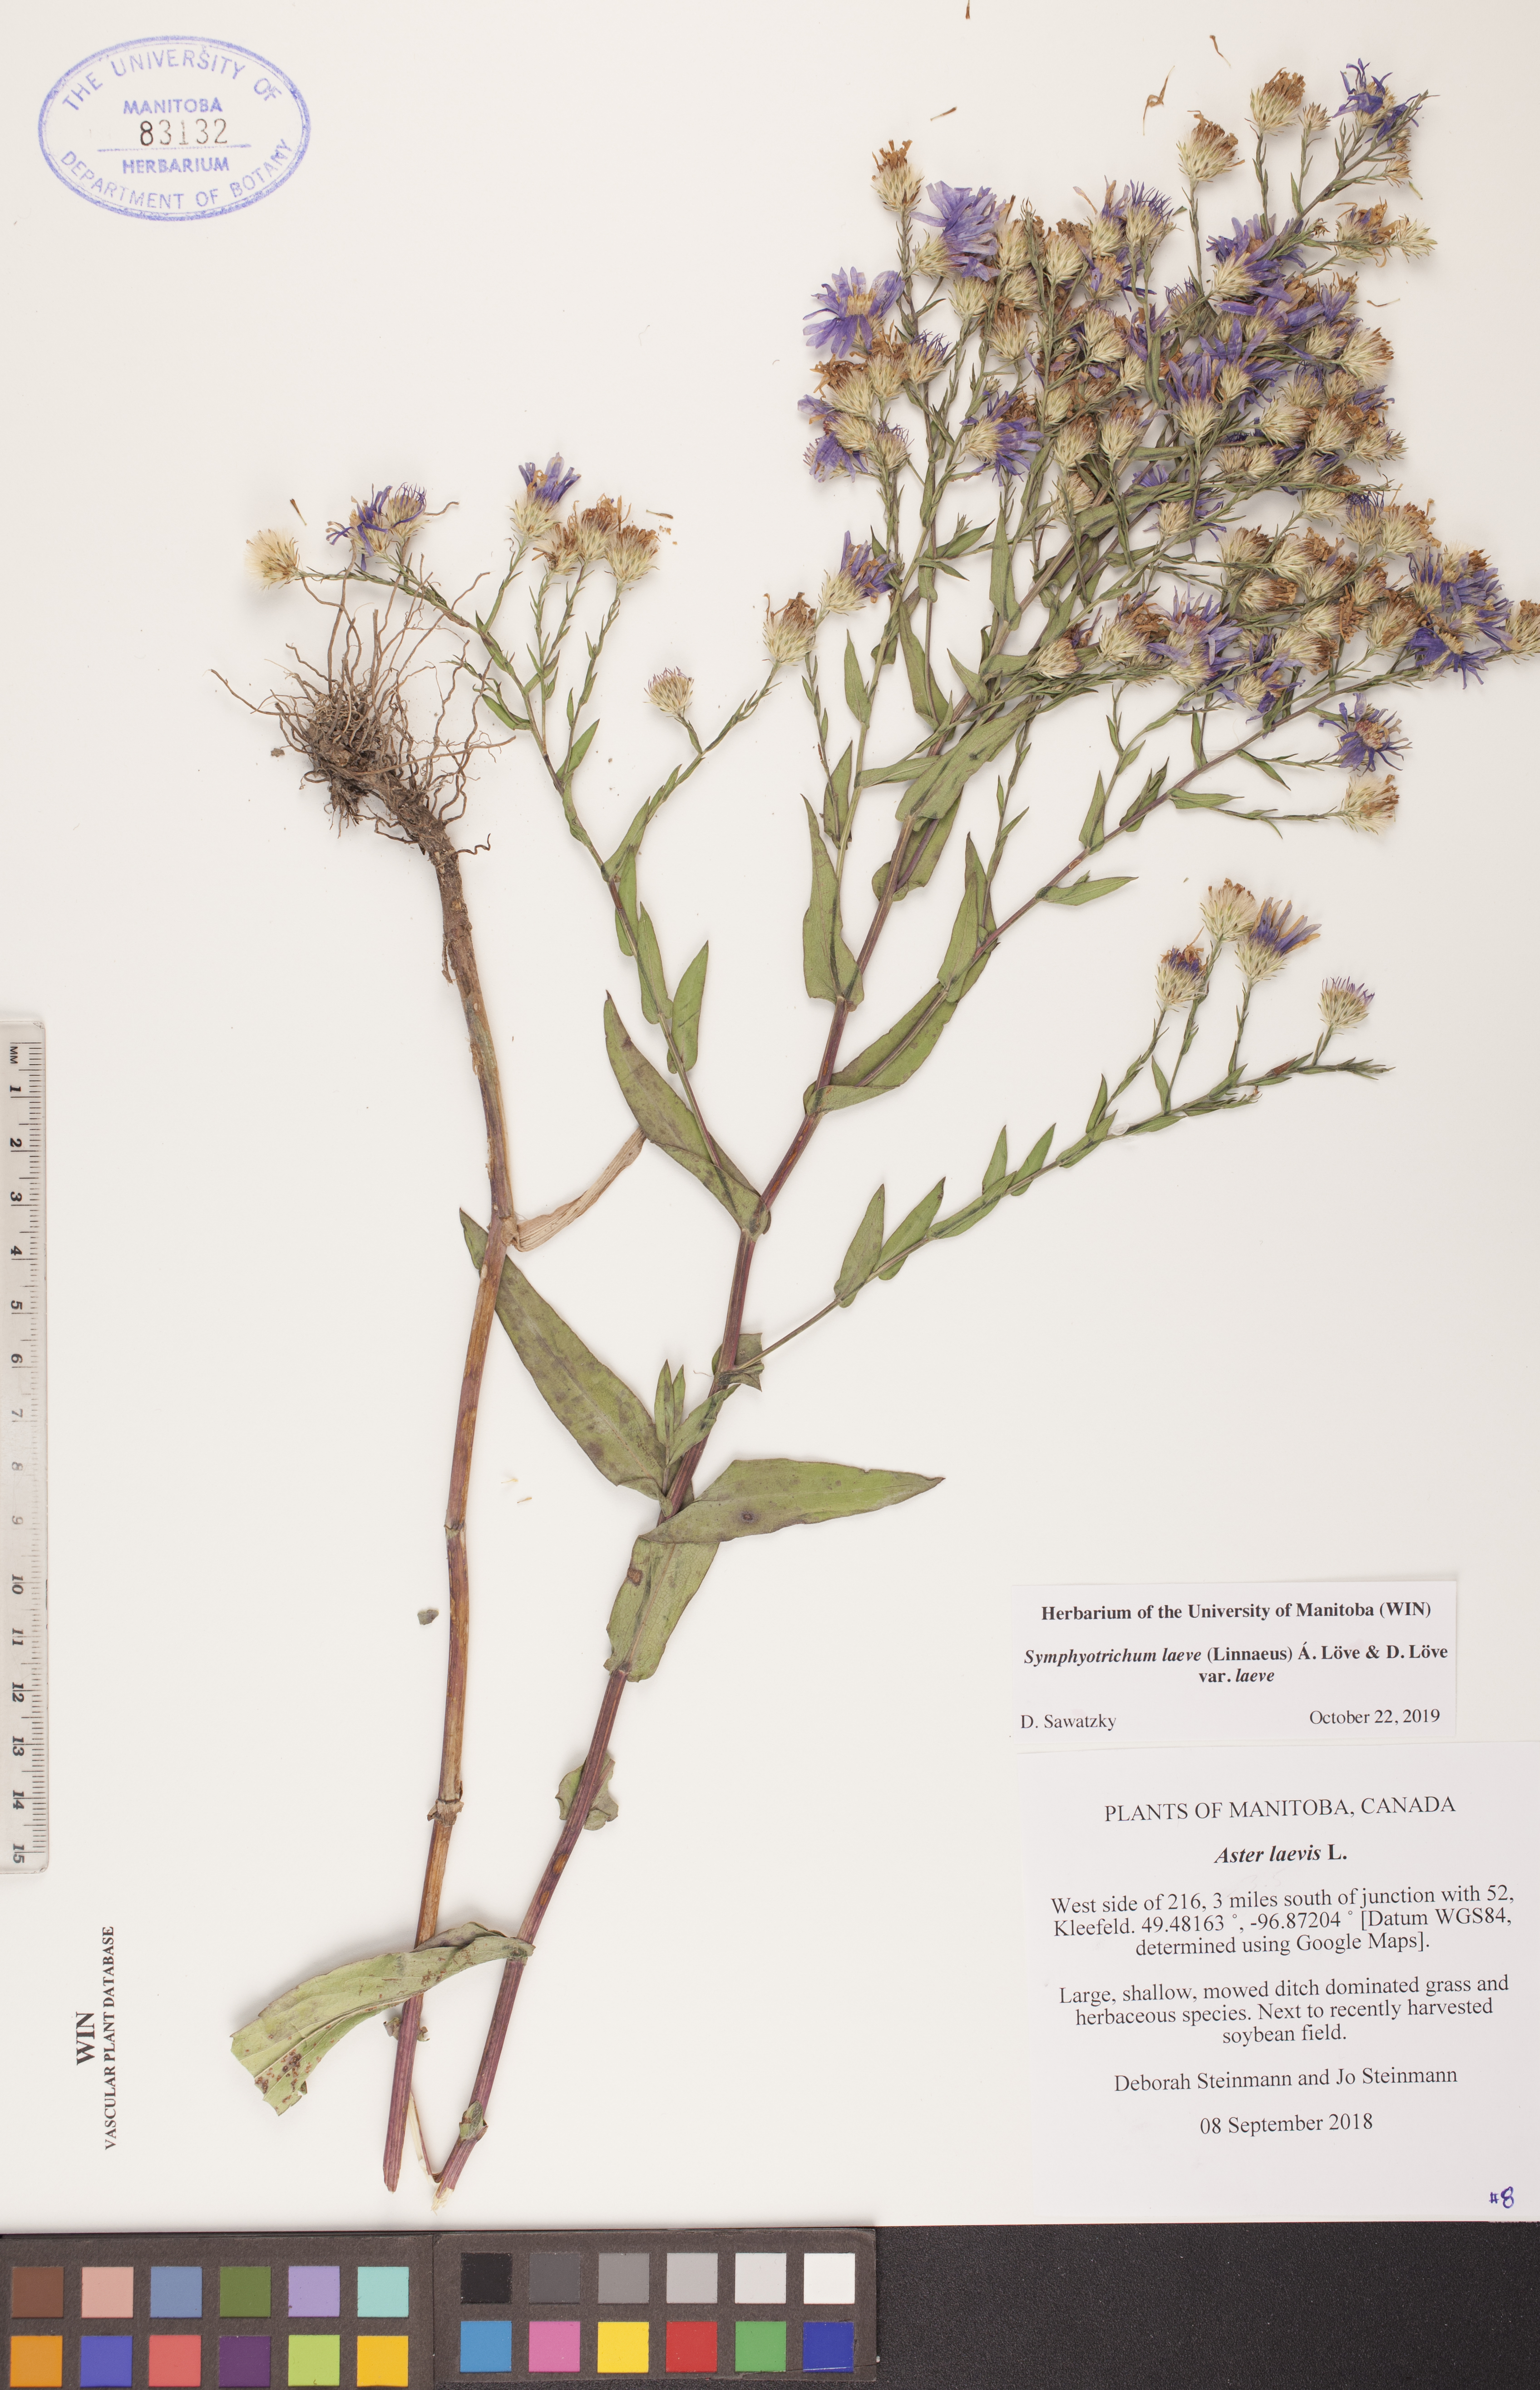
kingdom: Plantae
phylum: Tracheophyta
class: Magnoliopsida
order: Asterales
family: Asteraceae
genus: Symphyotrichum
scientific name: Symphyotrichum laeve
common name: Glaucous aster
